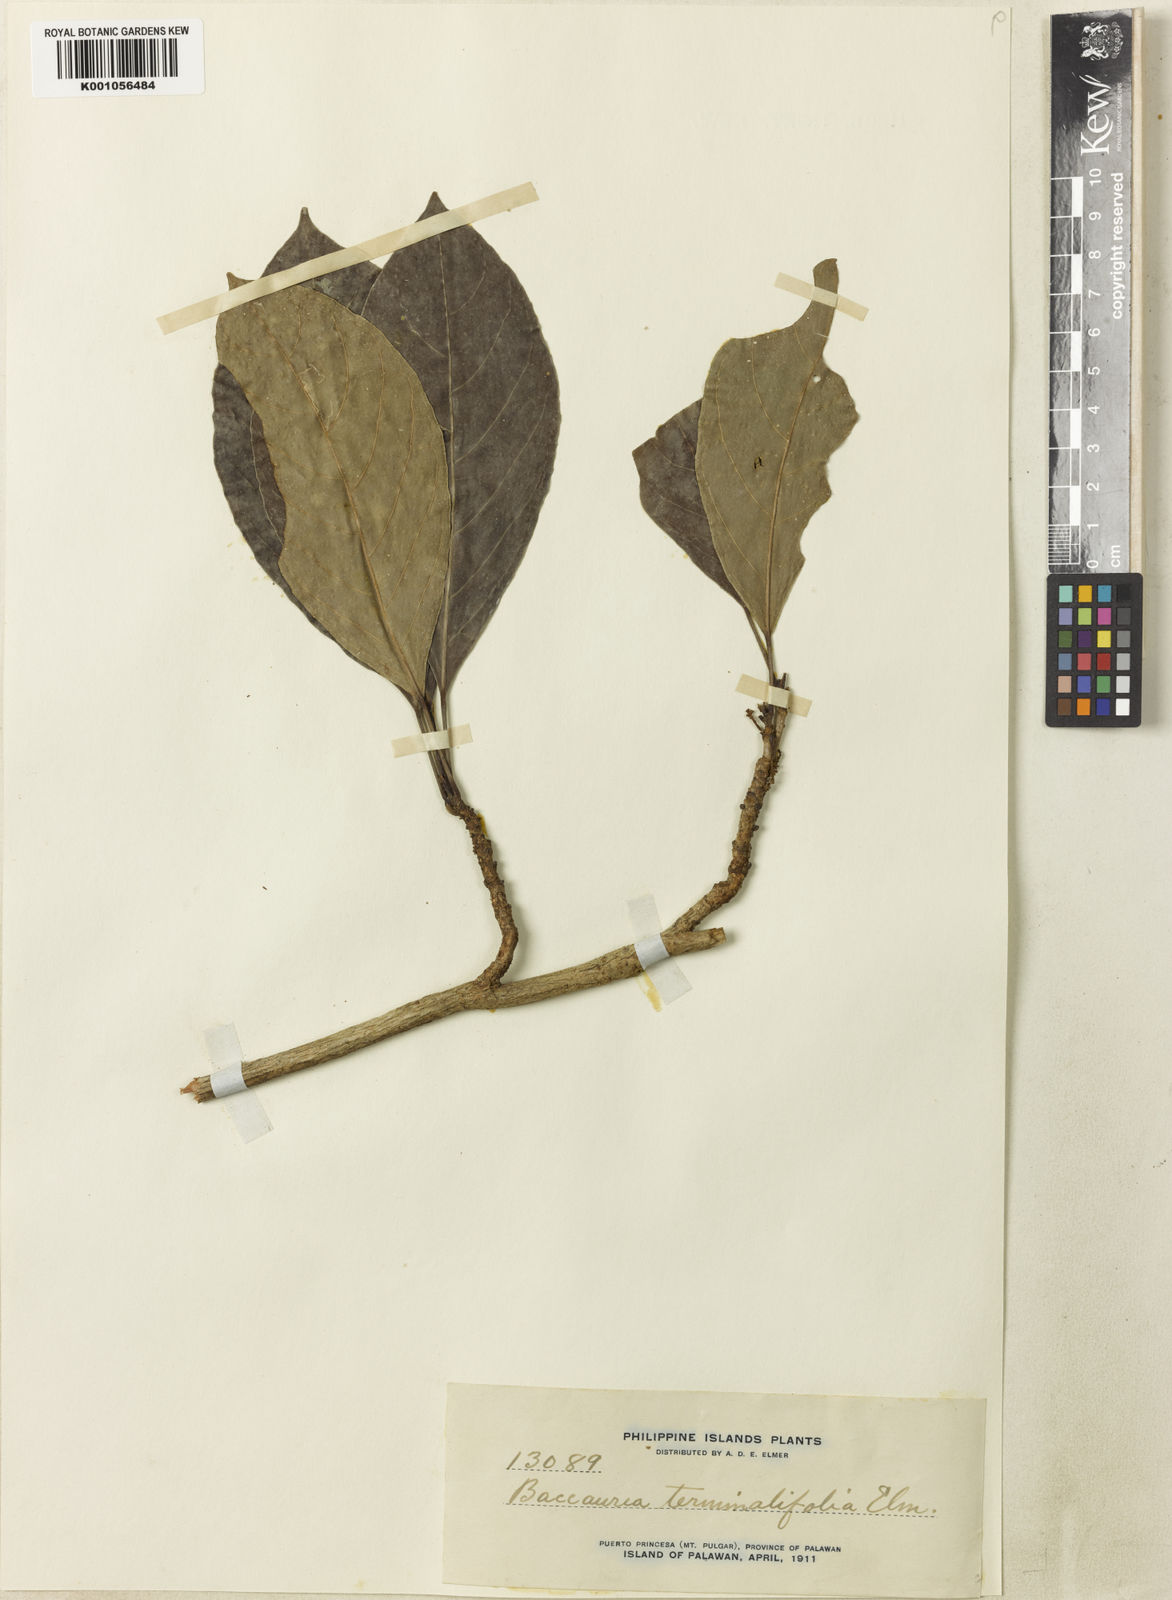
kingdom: Plantae
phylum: Tracheophyta
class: Magnoliopsida
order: Malpighiales
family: Phyllanthaceae
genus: Baccaurea
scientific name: Baccaurea
